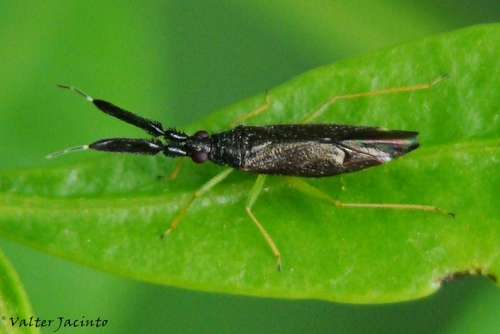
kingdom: Animalia
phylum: Arthropoda
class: Insecta
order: Hemiptera
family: Miridae
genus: Heterotoma
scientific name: Heterotoma planicornis
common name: Plant bug
